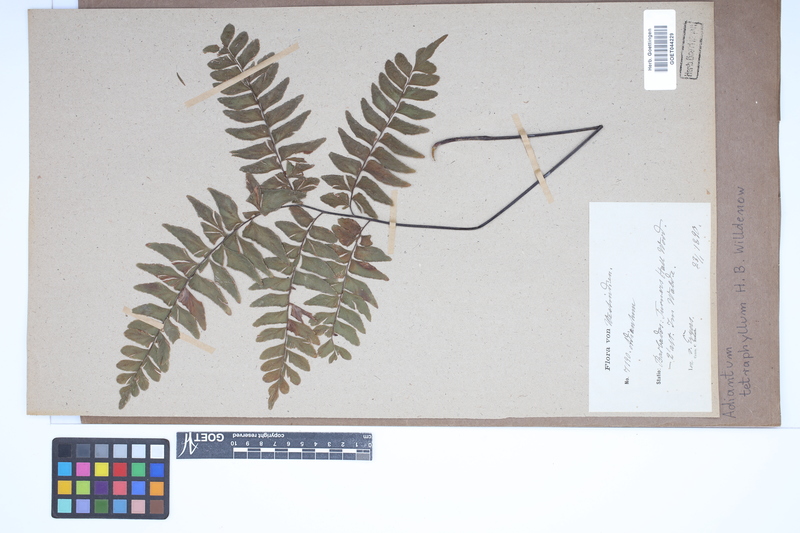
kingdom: Plantae
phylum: Tracheophyta
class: Polypodiopsida
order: Polypodiales
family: Pteridaceae
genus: Adiantum
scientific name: Adiantum tetraphyllum
